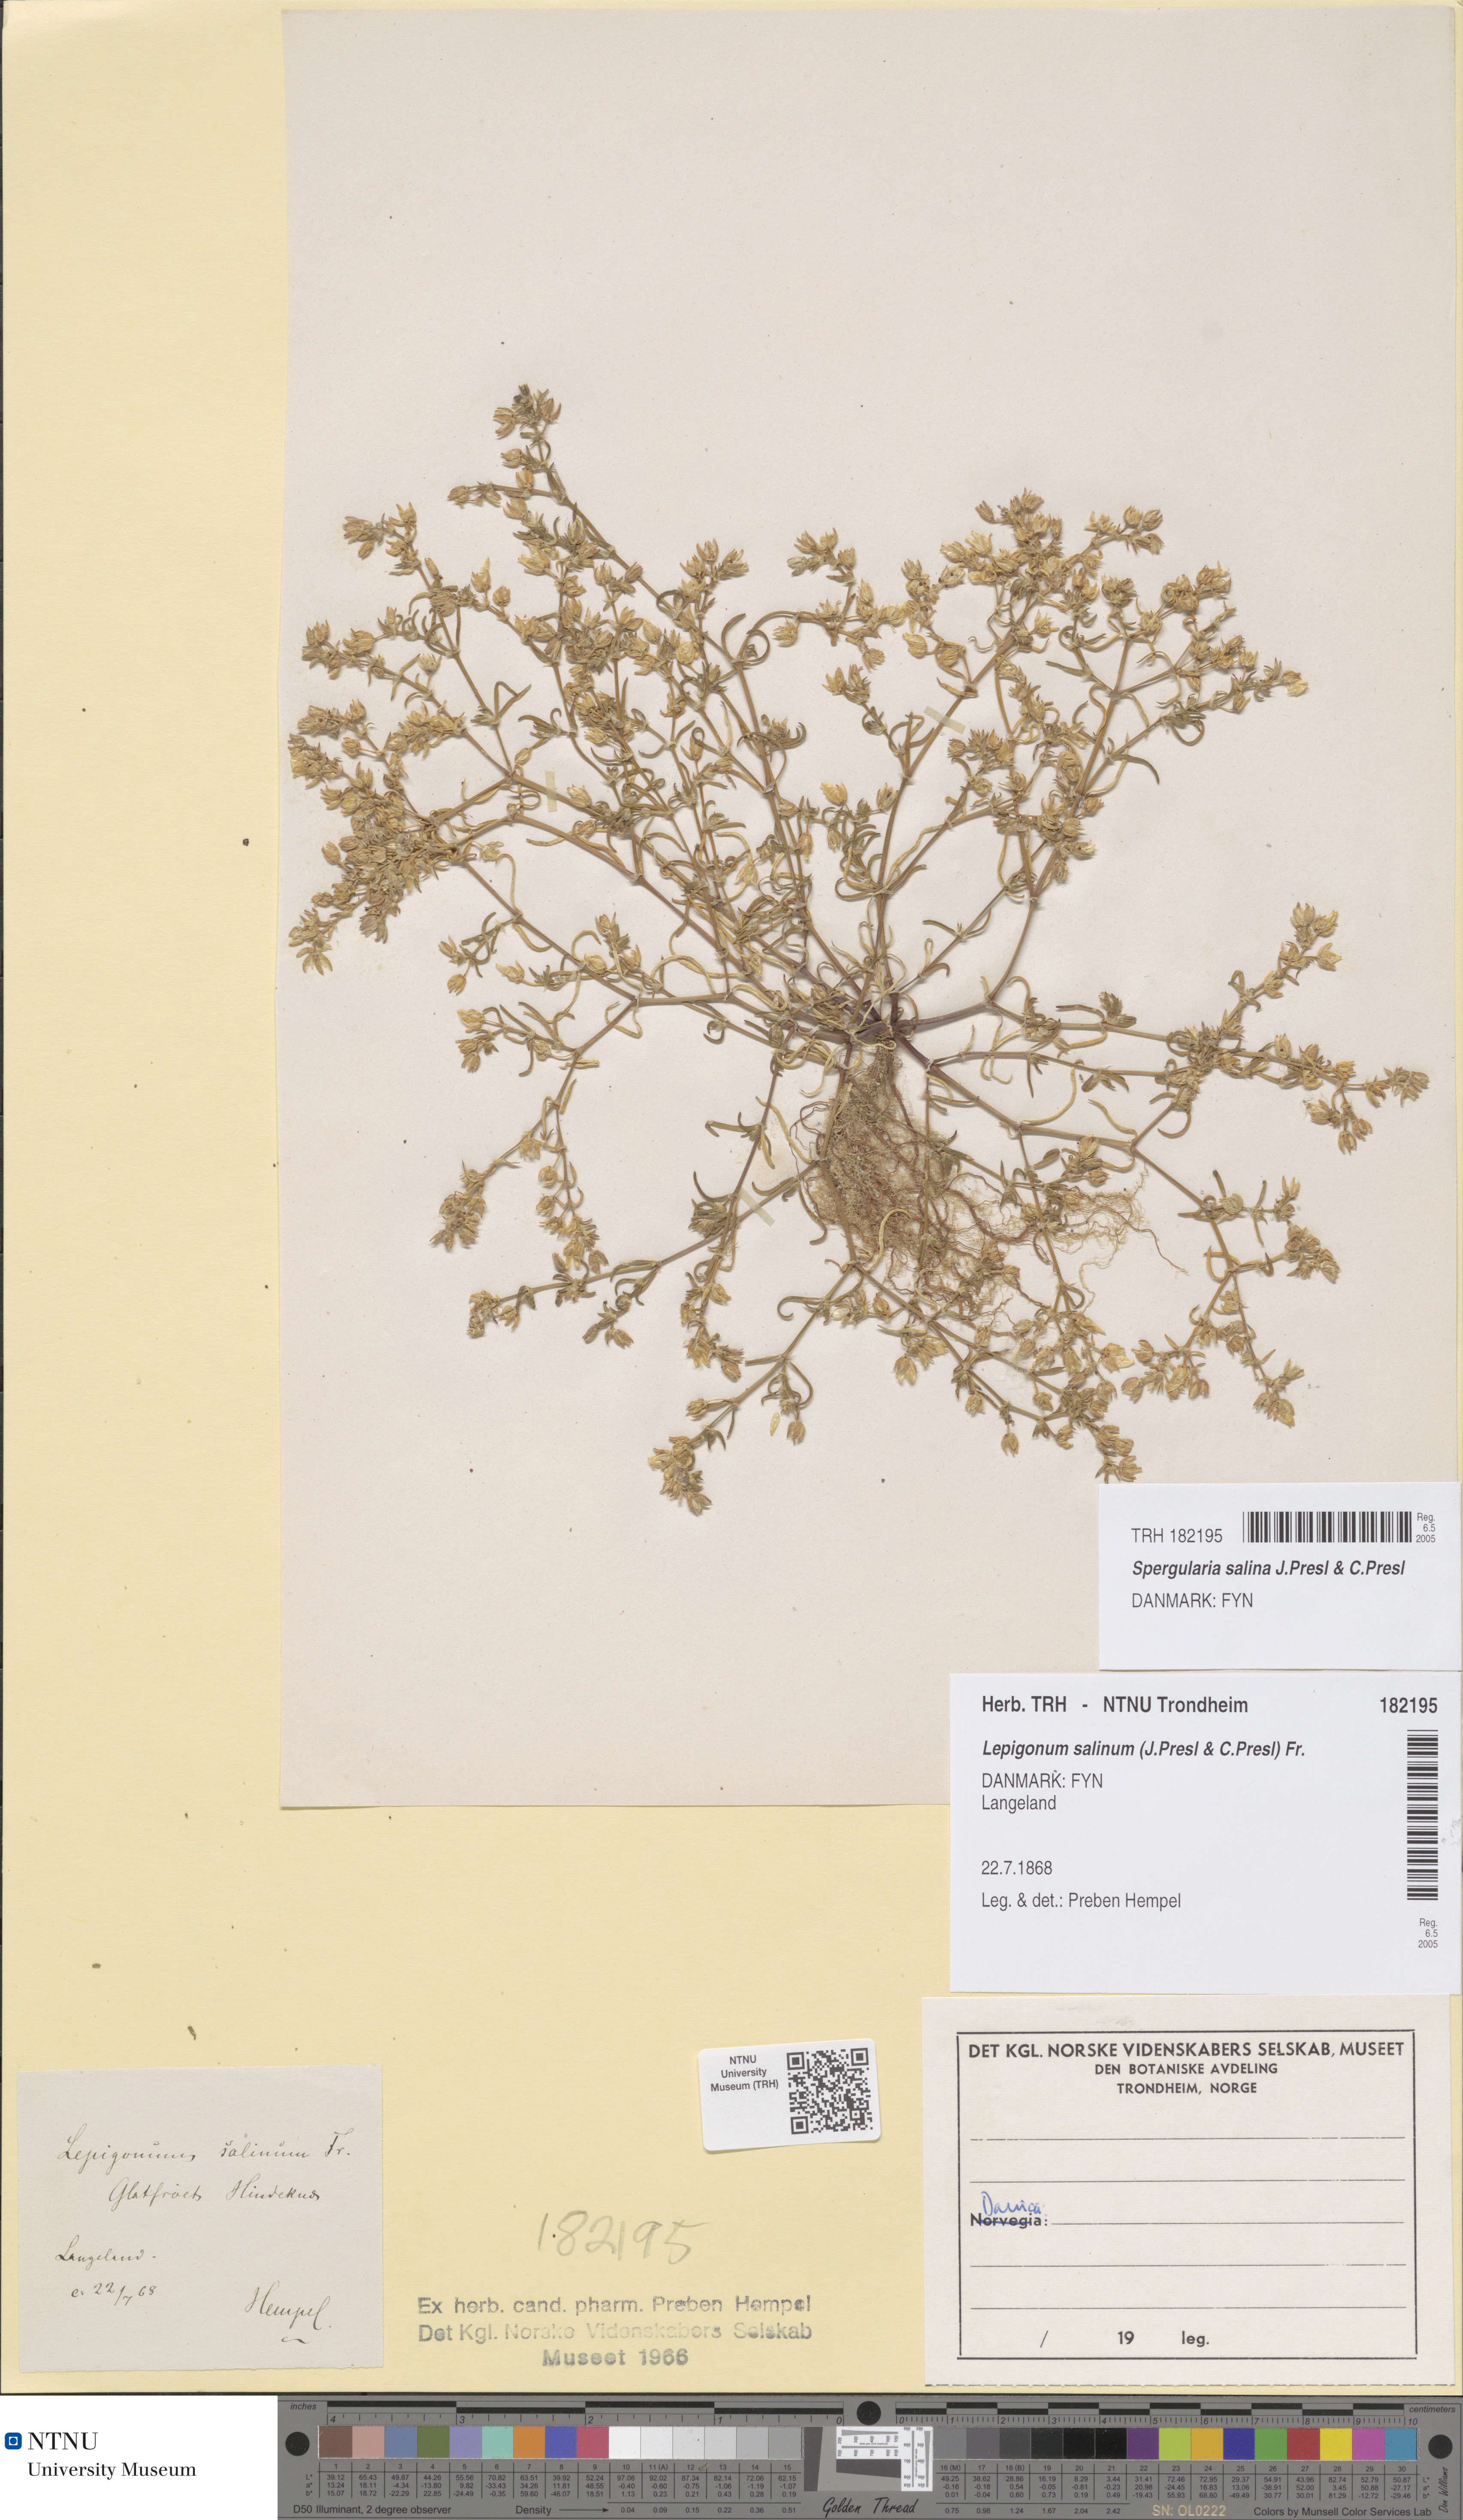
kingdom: Plantae
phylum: Tracheophyta
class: Magnoliopsida
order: Caryophyllales
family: Caryophyllaceae
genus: Spergularia
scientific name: Spergularia marina
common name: Lesser sea-spurrey
